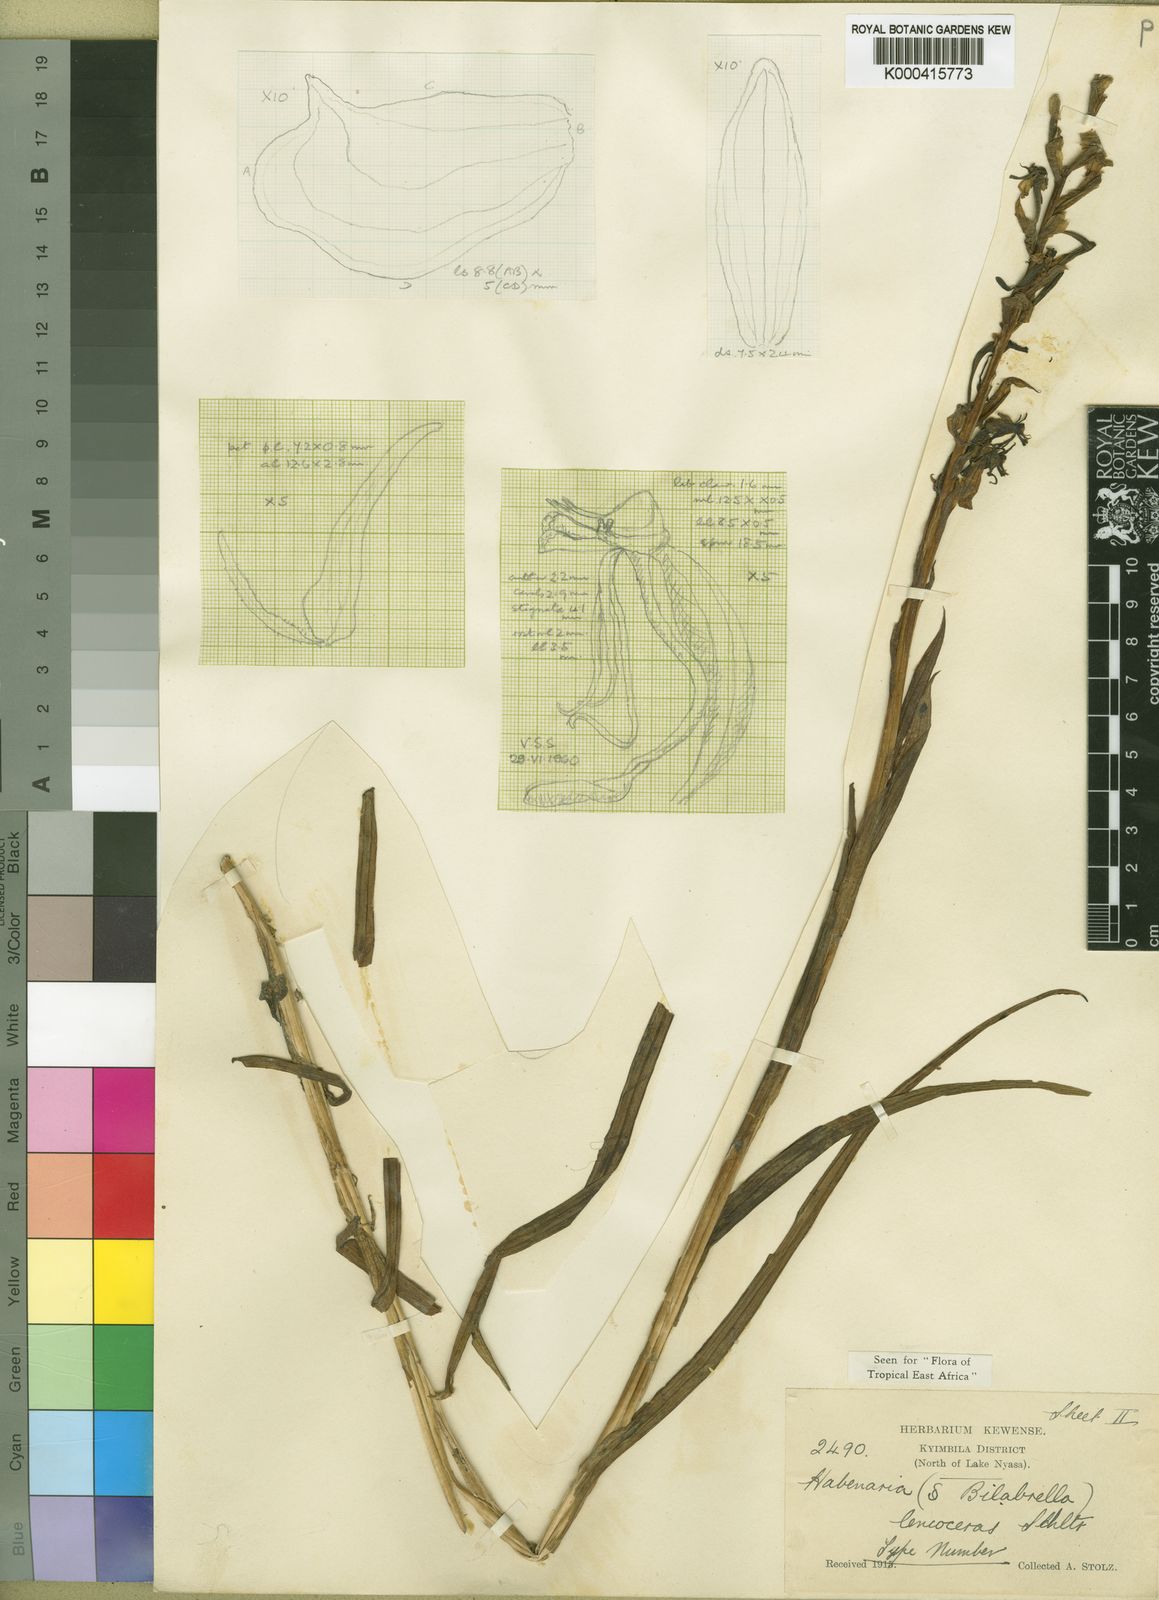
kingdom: Plantae
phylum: Tracheophyta
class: Liliopsida
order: Asparagales
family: Orchidaceae
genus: Habenaria
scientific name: Habenaria leucoceras
